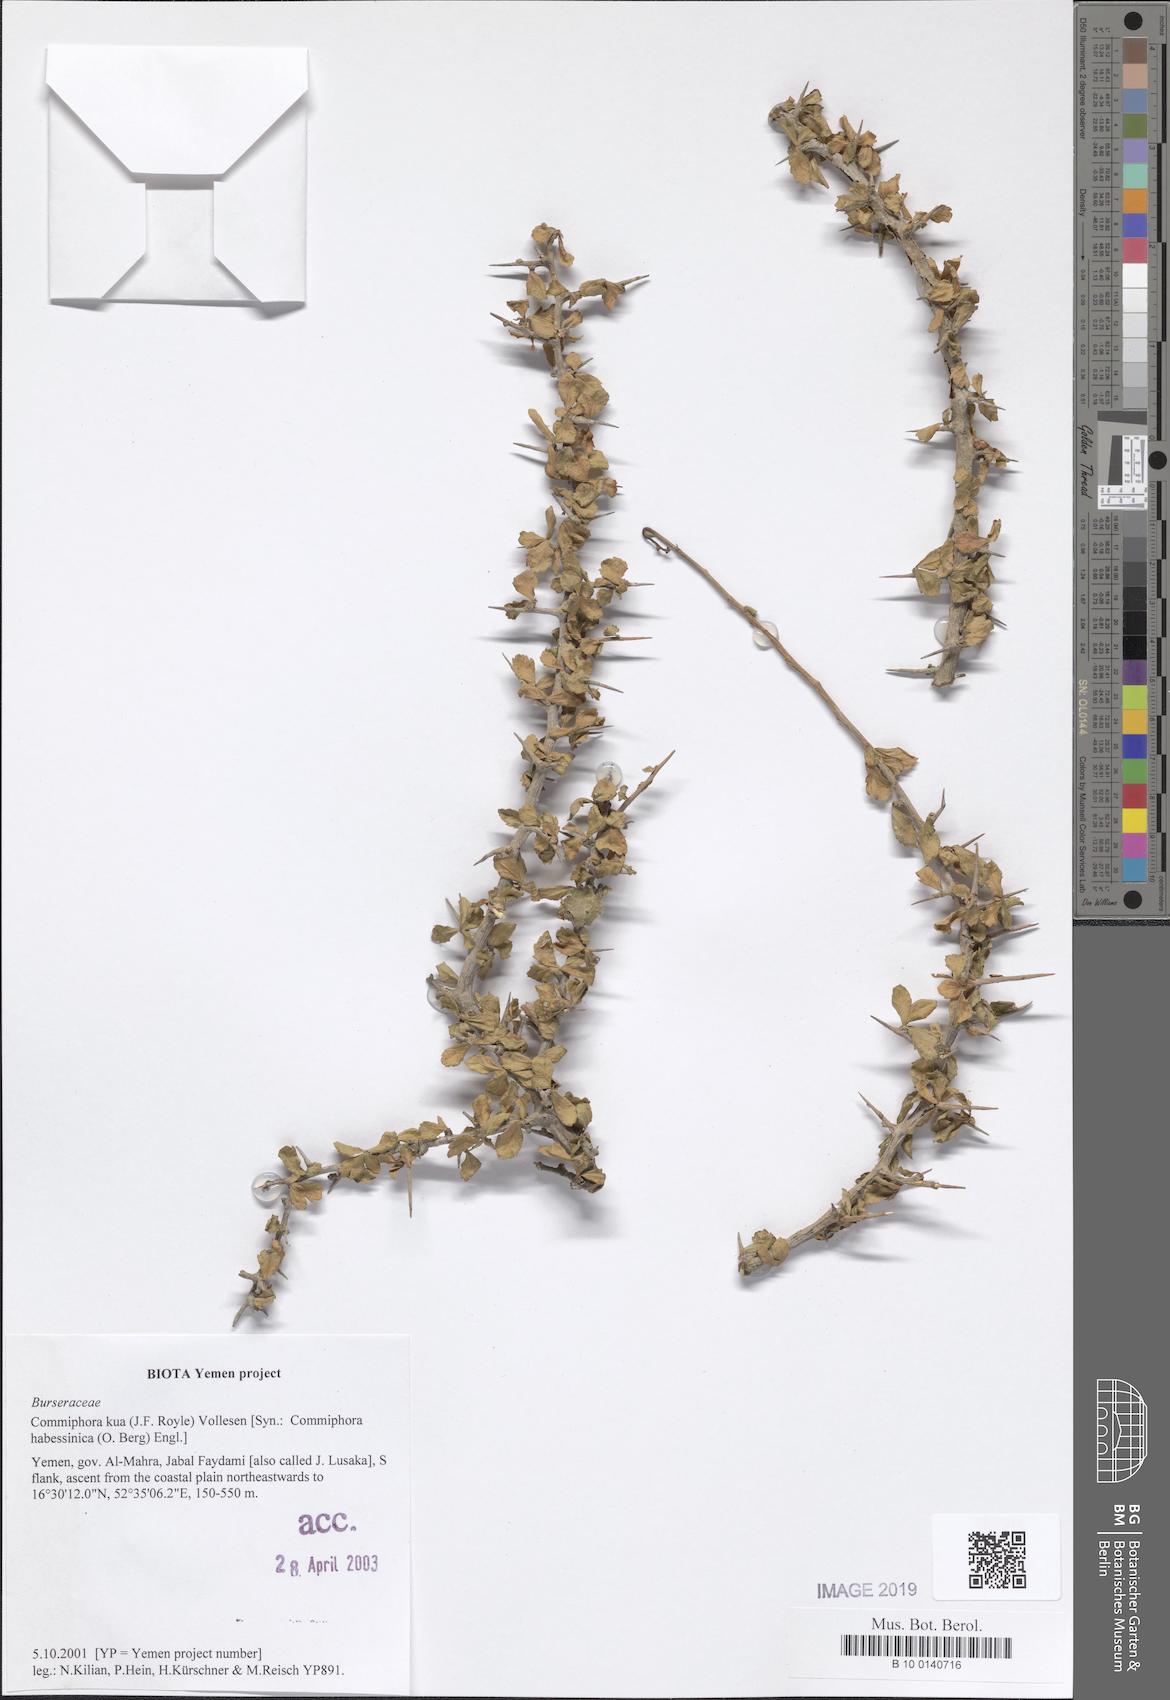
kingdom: Plantae
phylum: Tracheophyta
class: Magnoliopsida
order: Sapindales
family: Burseraceae
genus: Commiphora
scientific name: Commiphora kua
